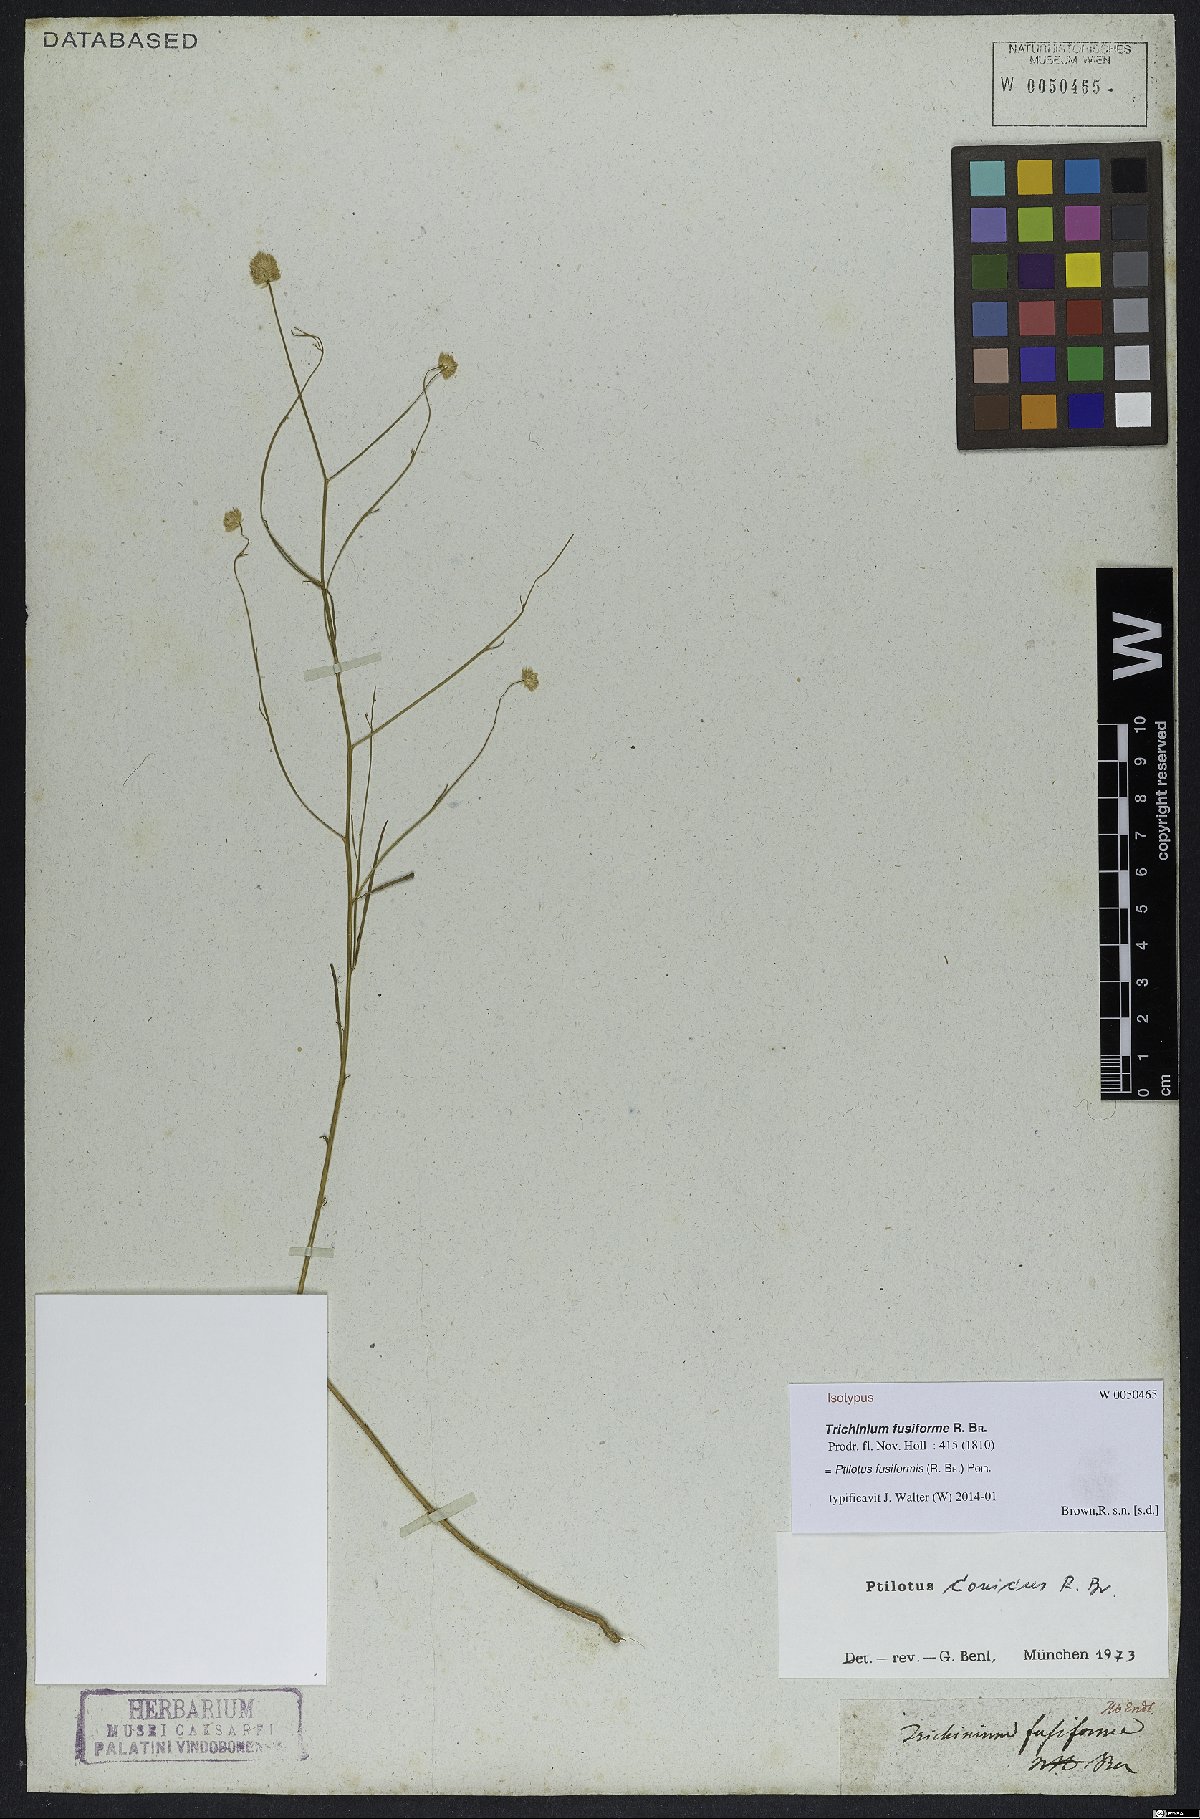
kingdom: Plantae
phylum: Tracheophyta
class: Magnoliopsida
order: Caryophyllales
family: Amaranthaceae
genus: Ptilotus
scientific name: Ptilotus fusiformis
